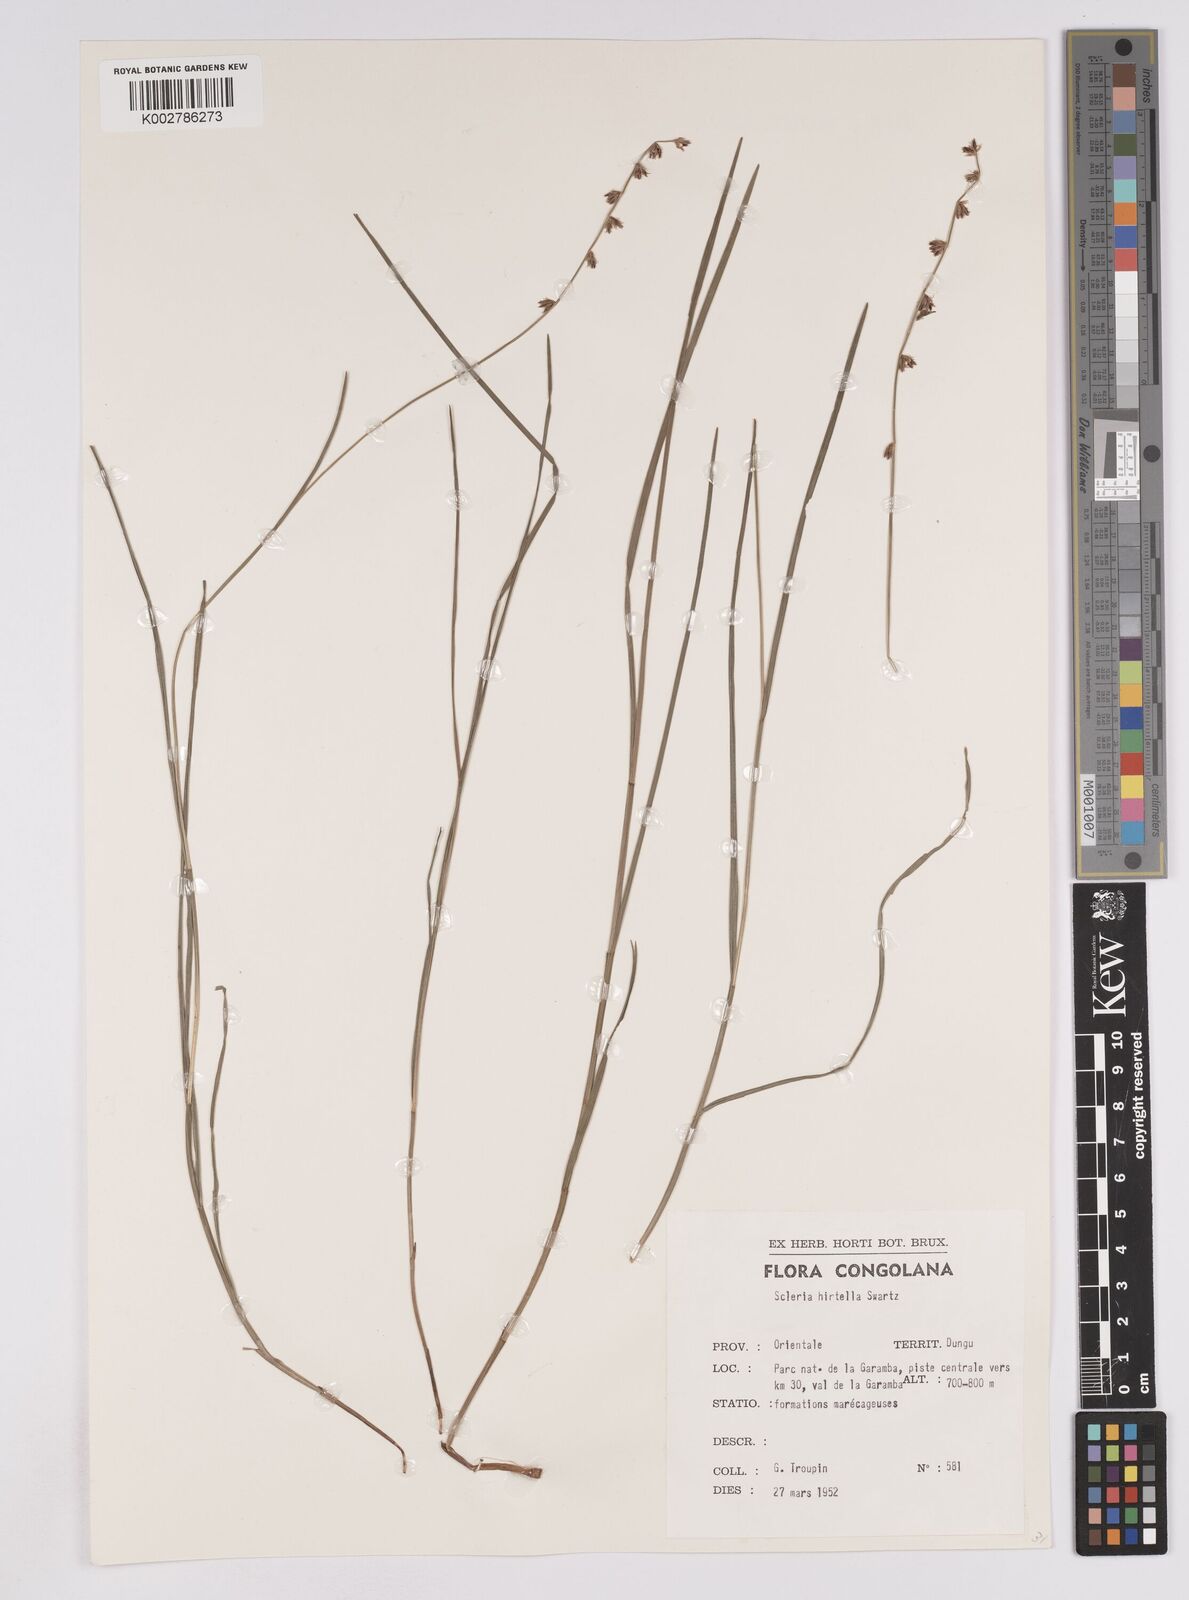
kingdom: Plantae
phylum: Tracheophyta
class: Liliopsida
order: Poales
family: Cyperaceae
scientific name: Cyperaceae
